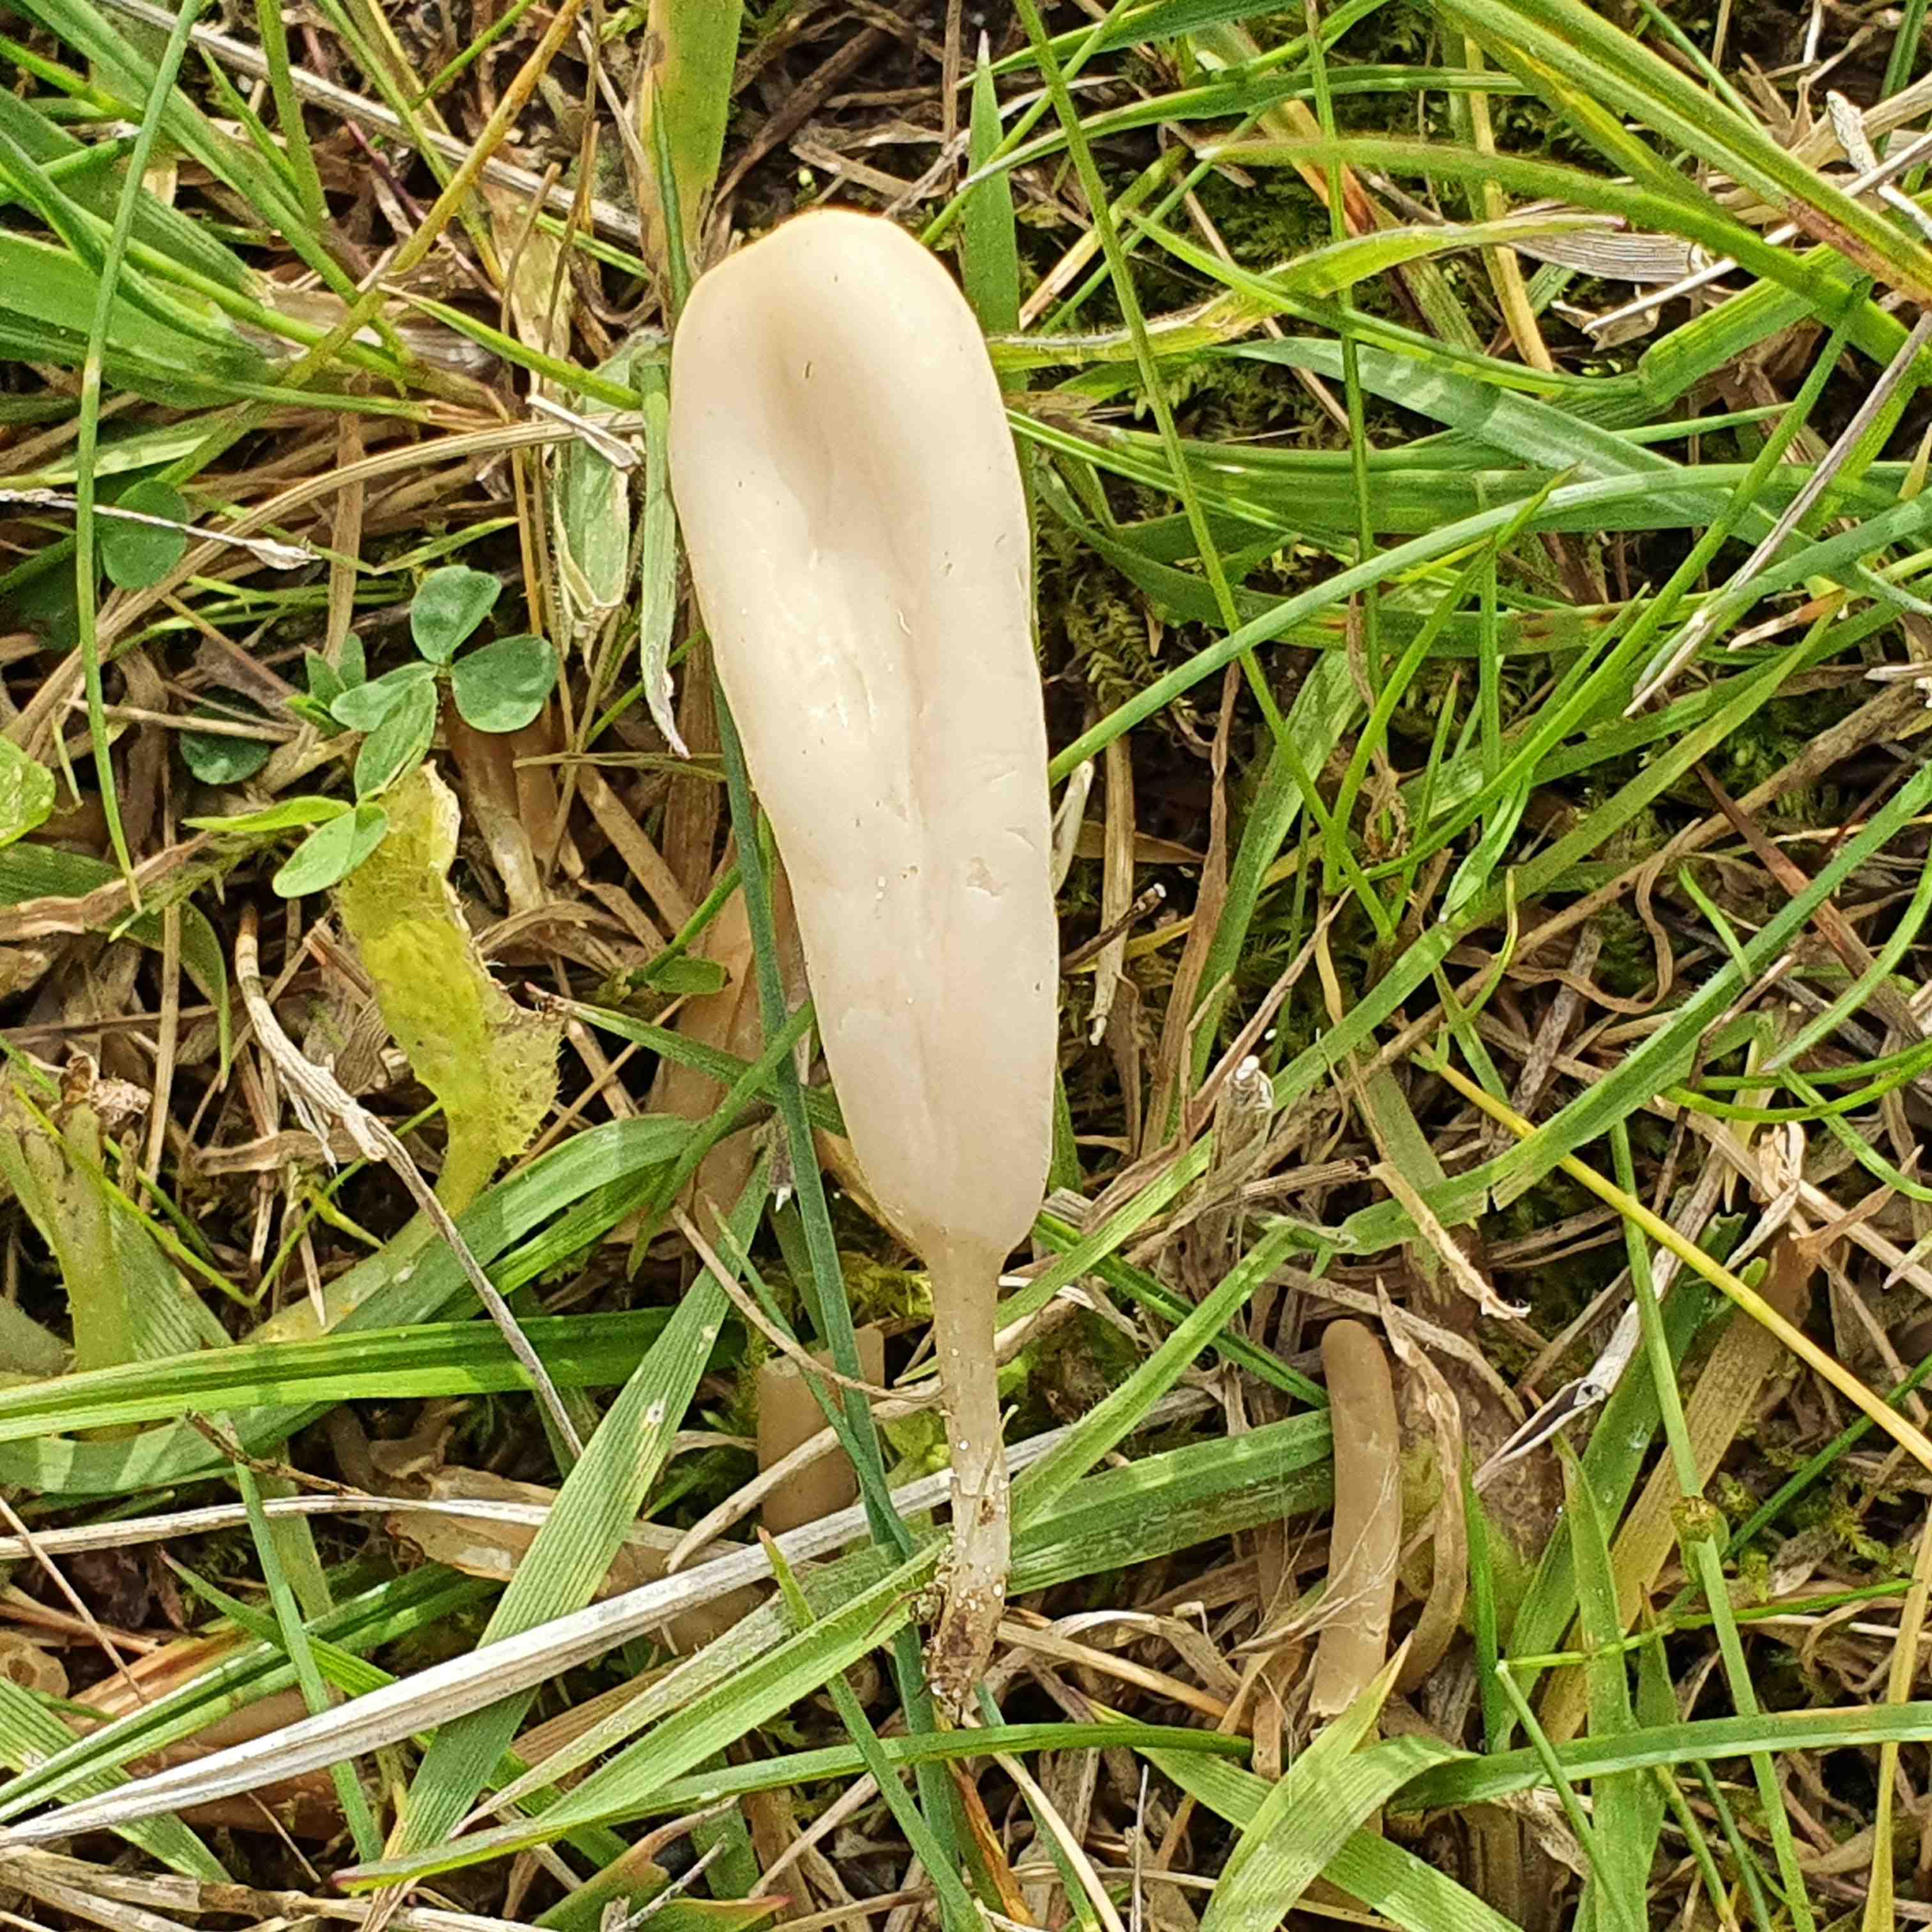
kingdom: Fungi
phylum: Basidiomycota
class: Agaricomycetes
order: Agaricales
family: Clavariaceae
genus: Clavaria
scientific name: Clavaria tenuipes
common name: isabellafarvet køllesvamp
